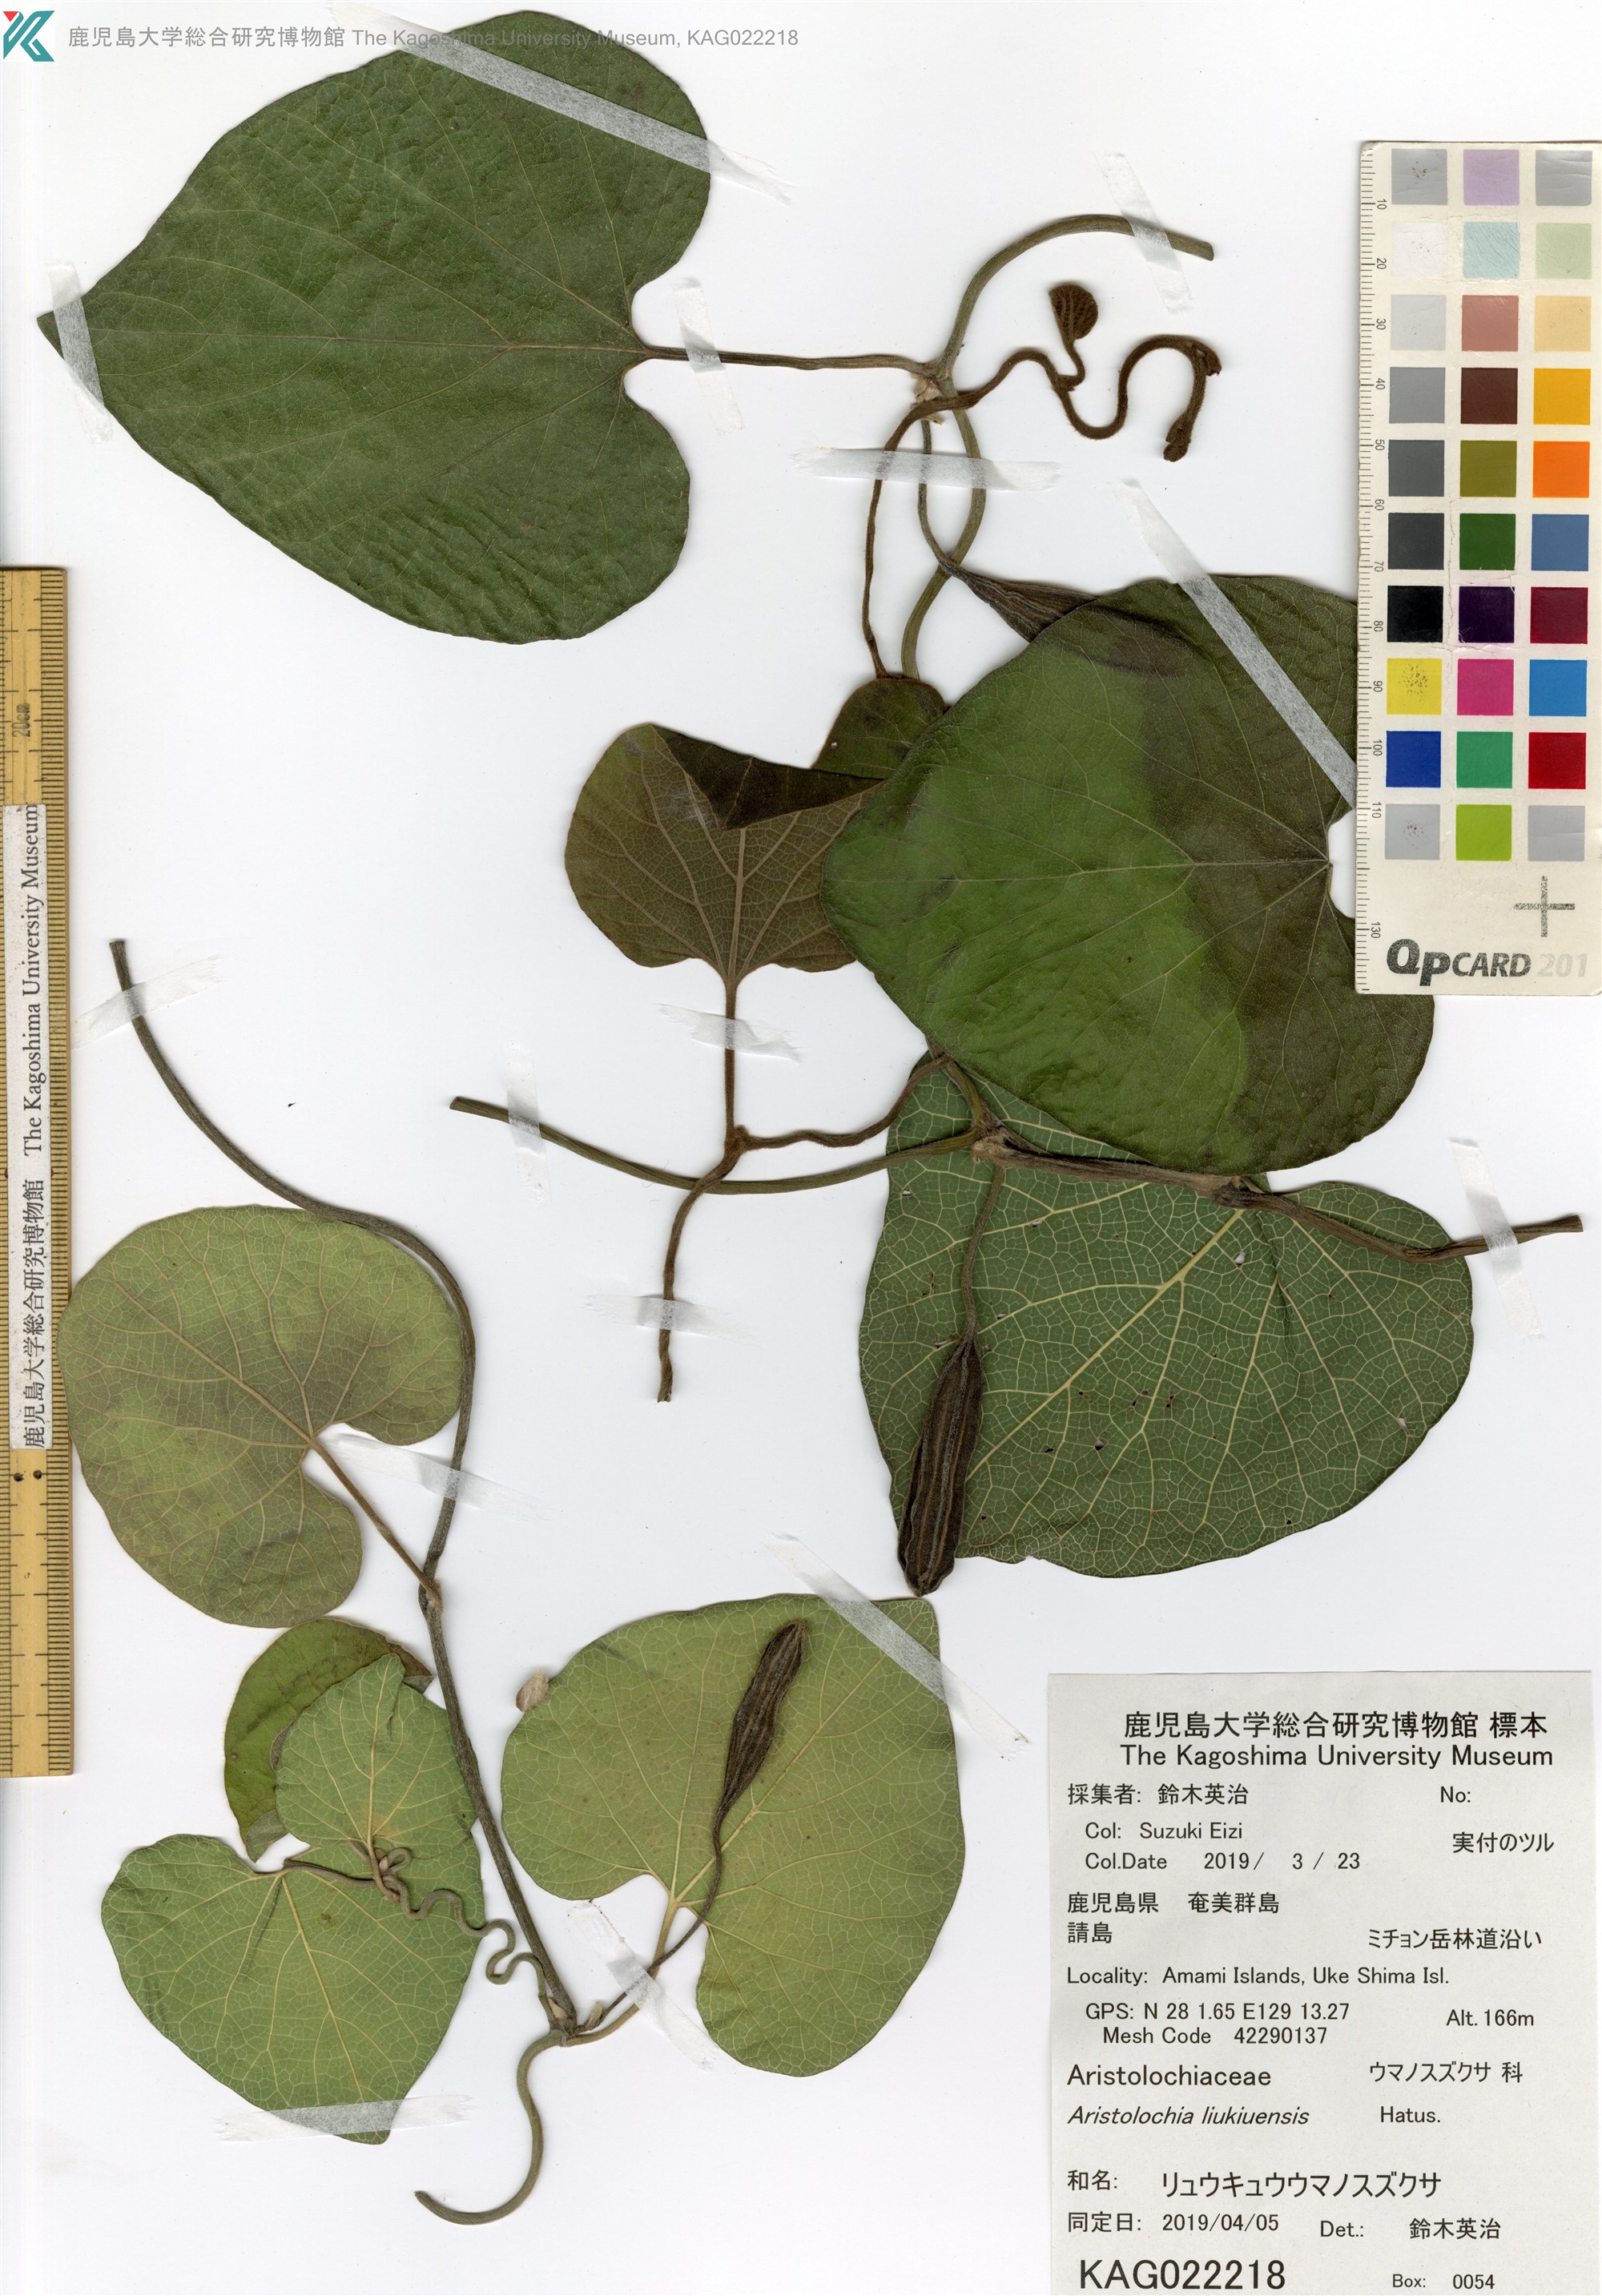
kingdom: Plantae
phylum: Tracheophyta
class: Magnoliopsida
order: Piperales
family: Aristolochiaceae
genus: Isotrema
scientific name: Isotrema liukiuense
